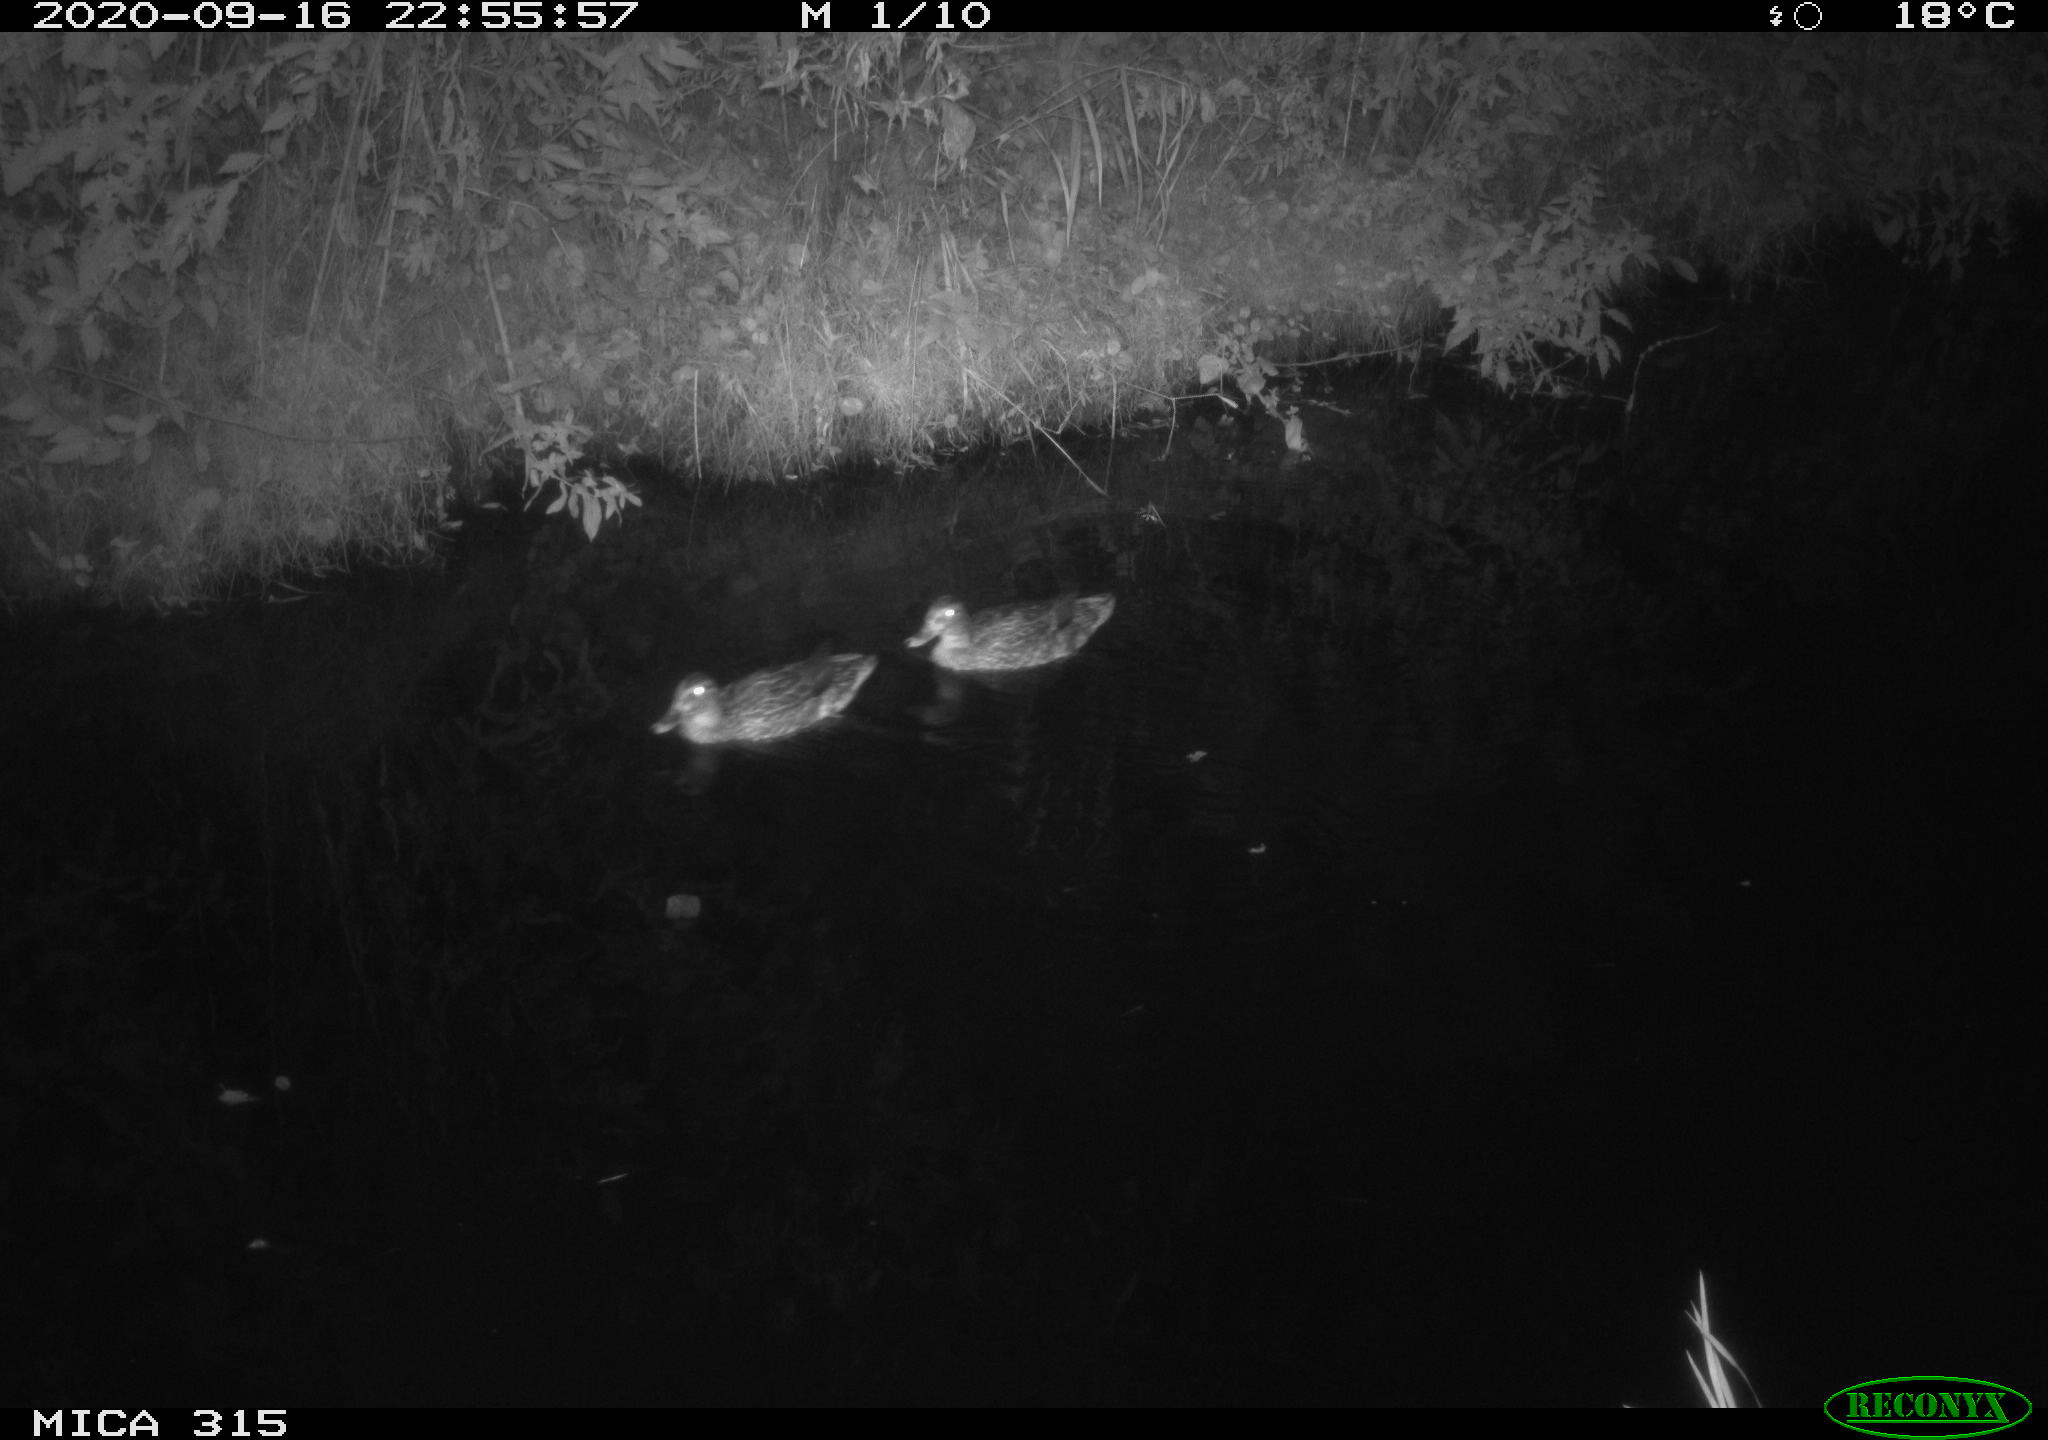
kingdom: Animalia
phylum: Chordata
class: Aves
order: Anseriformes
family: Anatidae
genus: Anas
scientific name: Anas platyrhynchos
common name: Mallard
